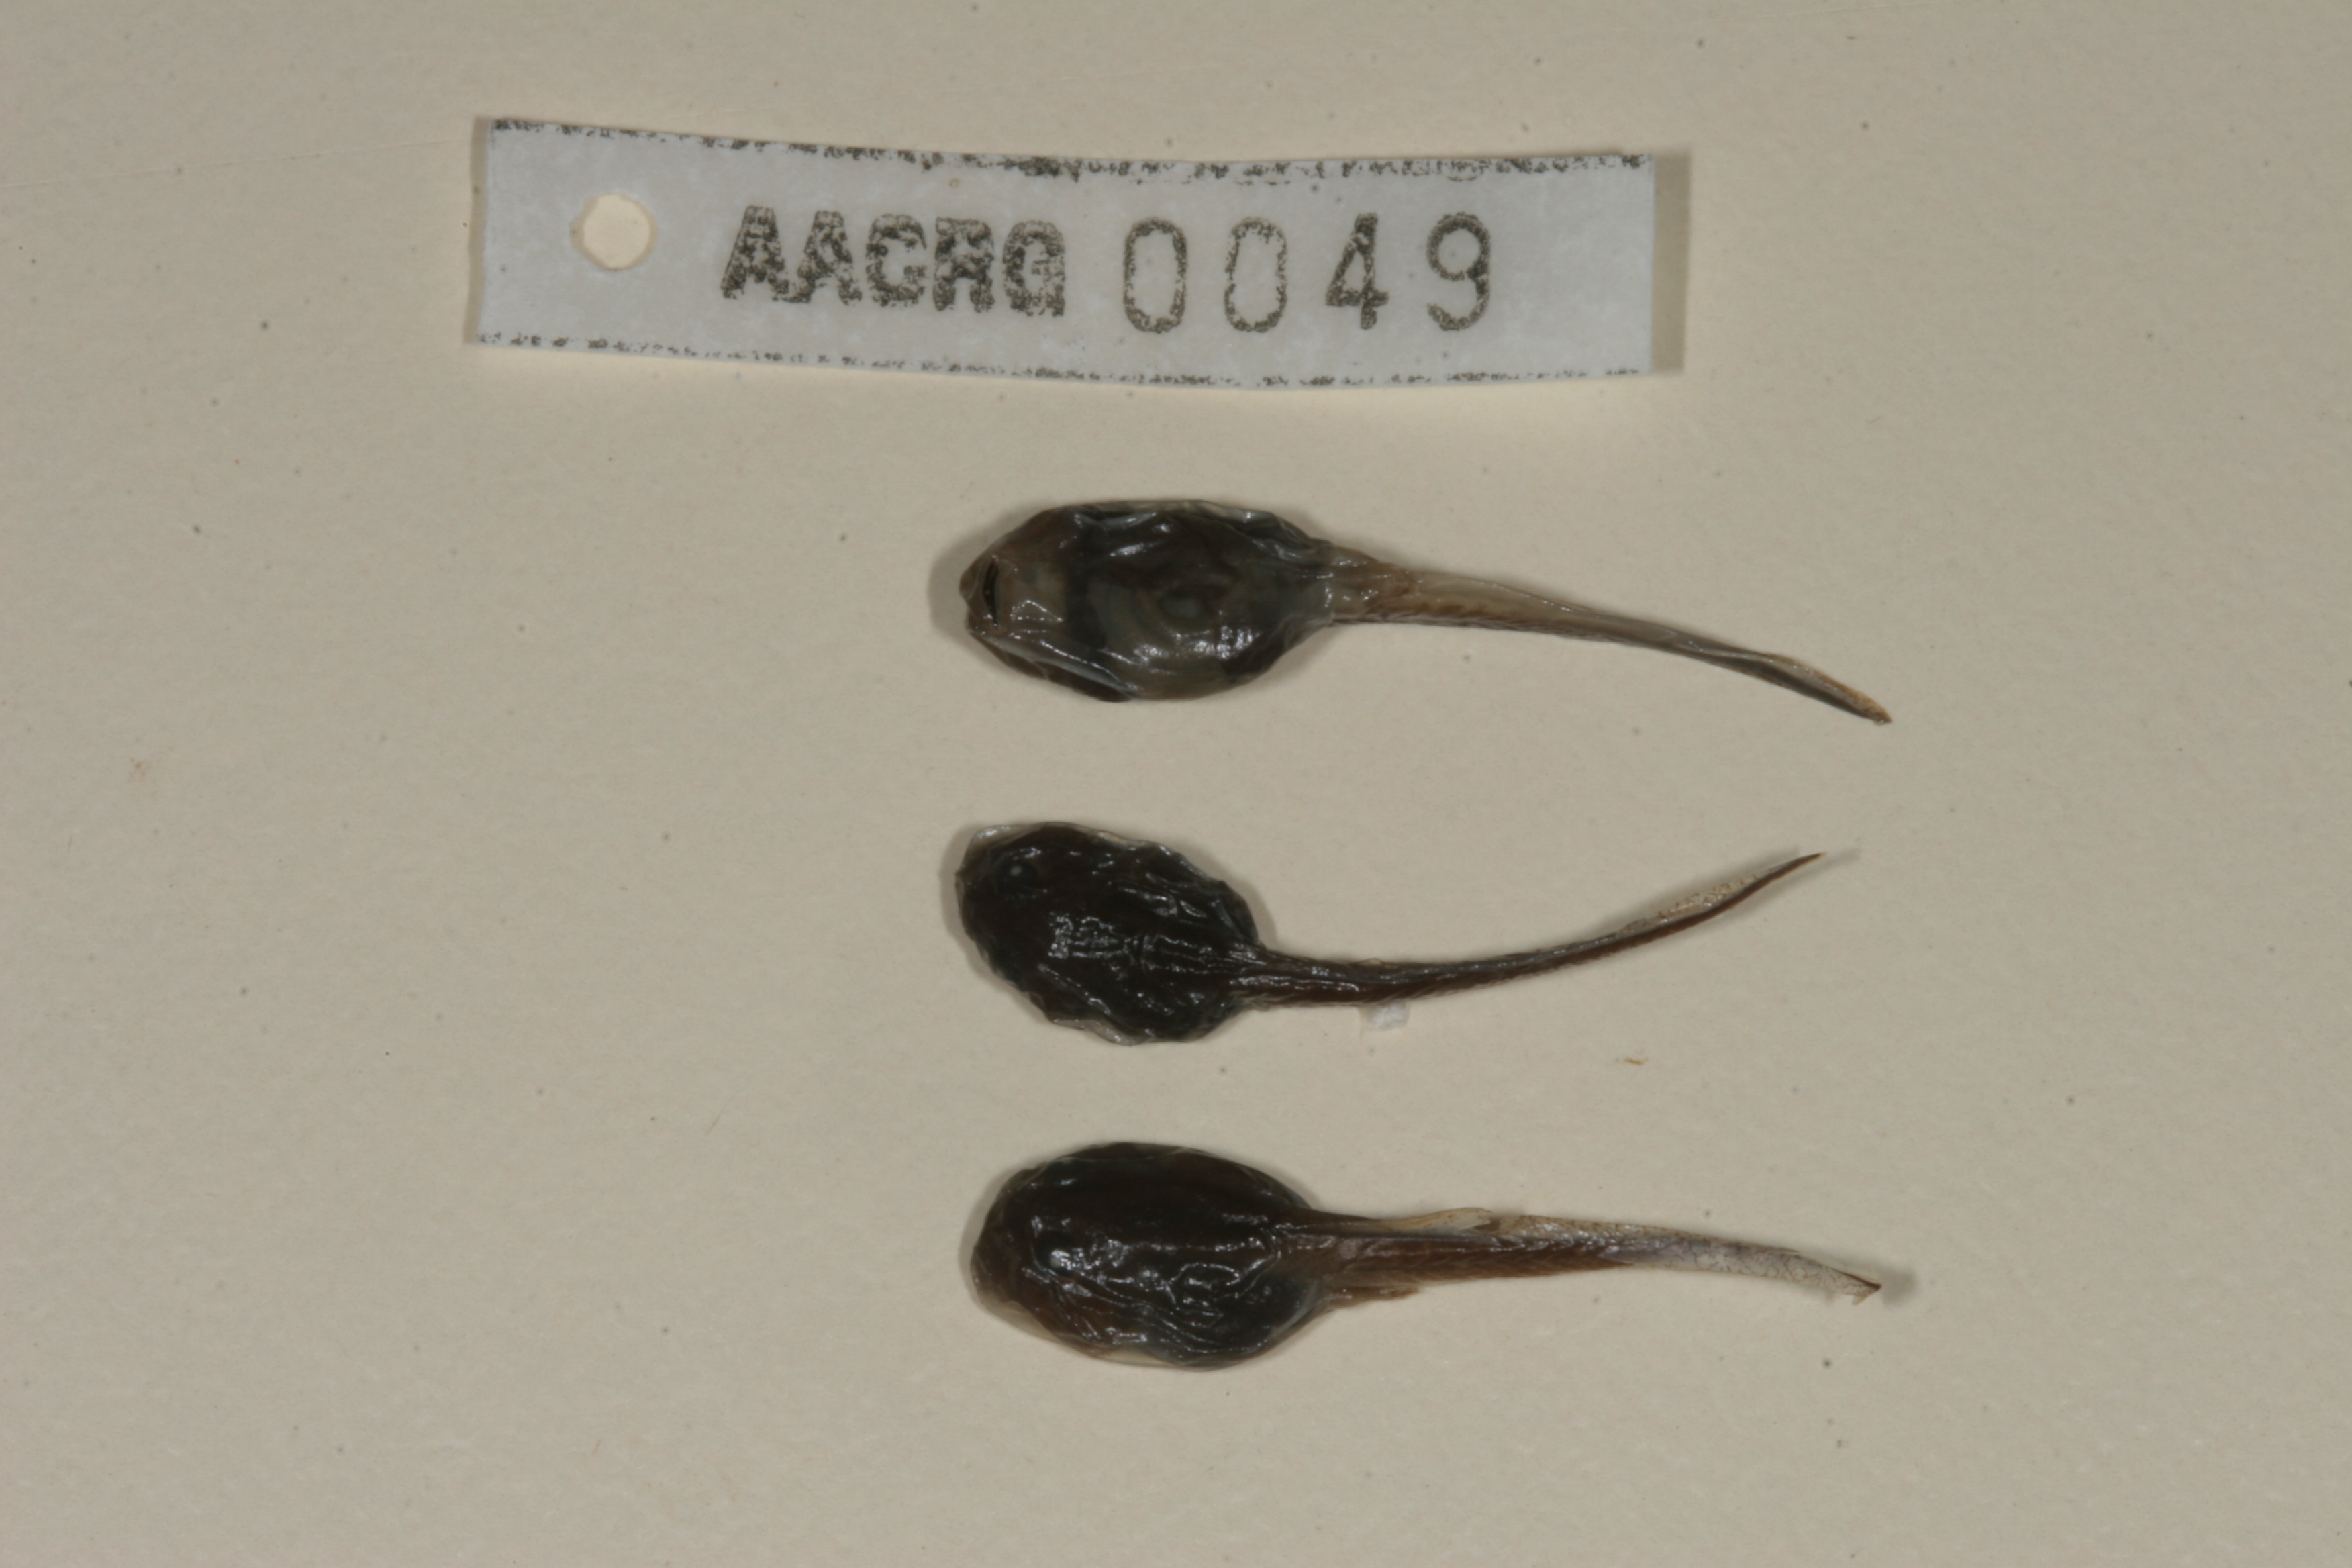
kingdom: Animalia
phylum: Chordata
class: Amphibia
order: Anura
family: Bufonidae
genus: Sclerophrys
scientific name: Sclerophrys gutturalis
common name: African common toad
